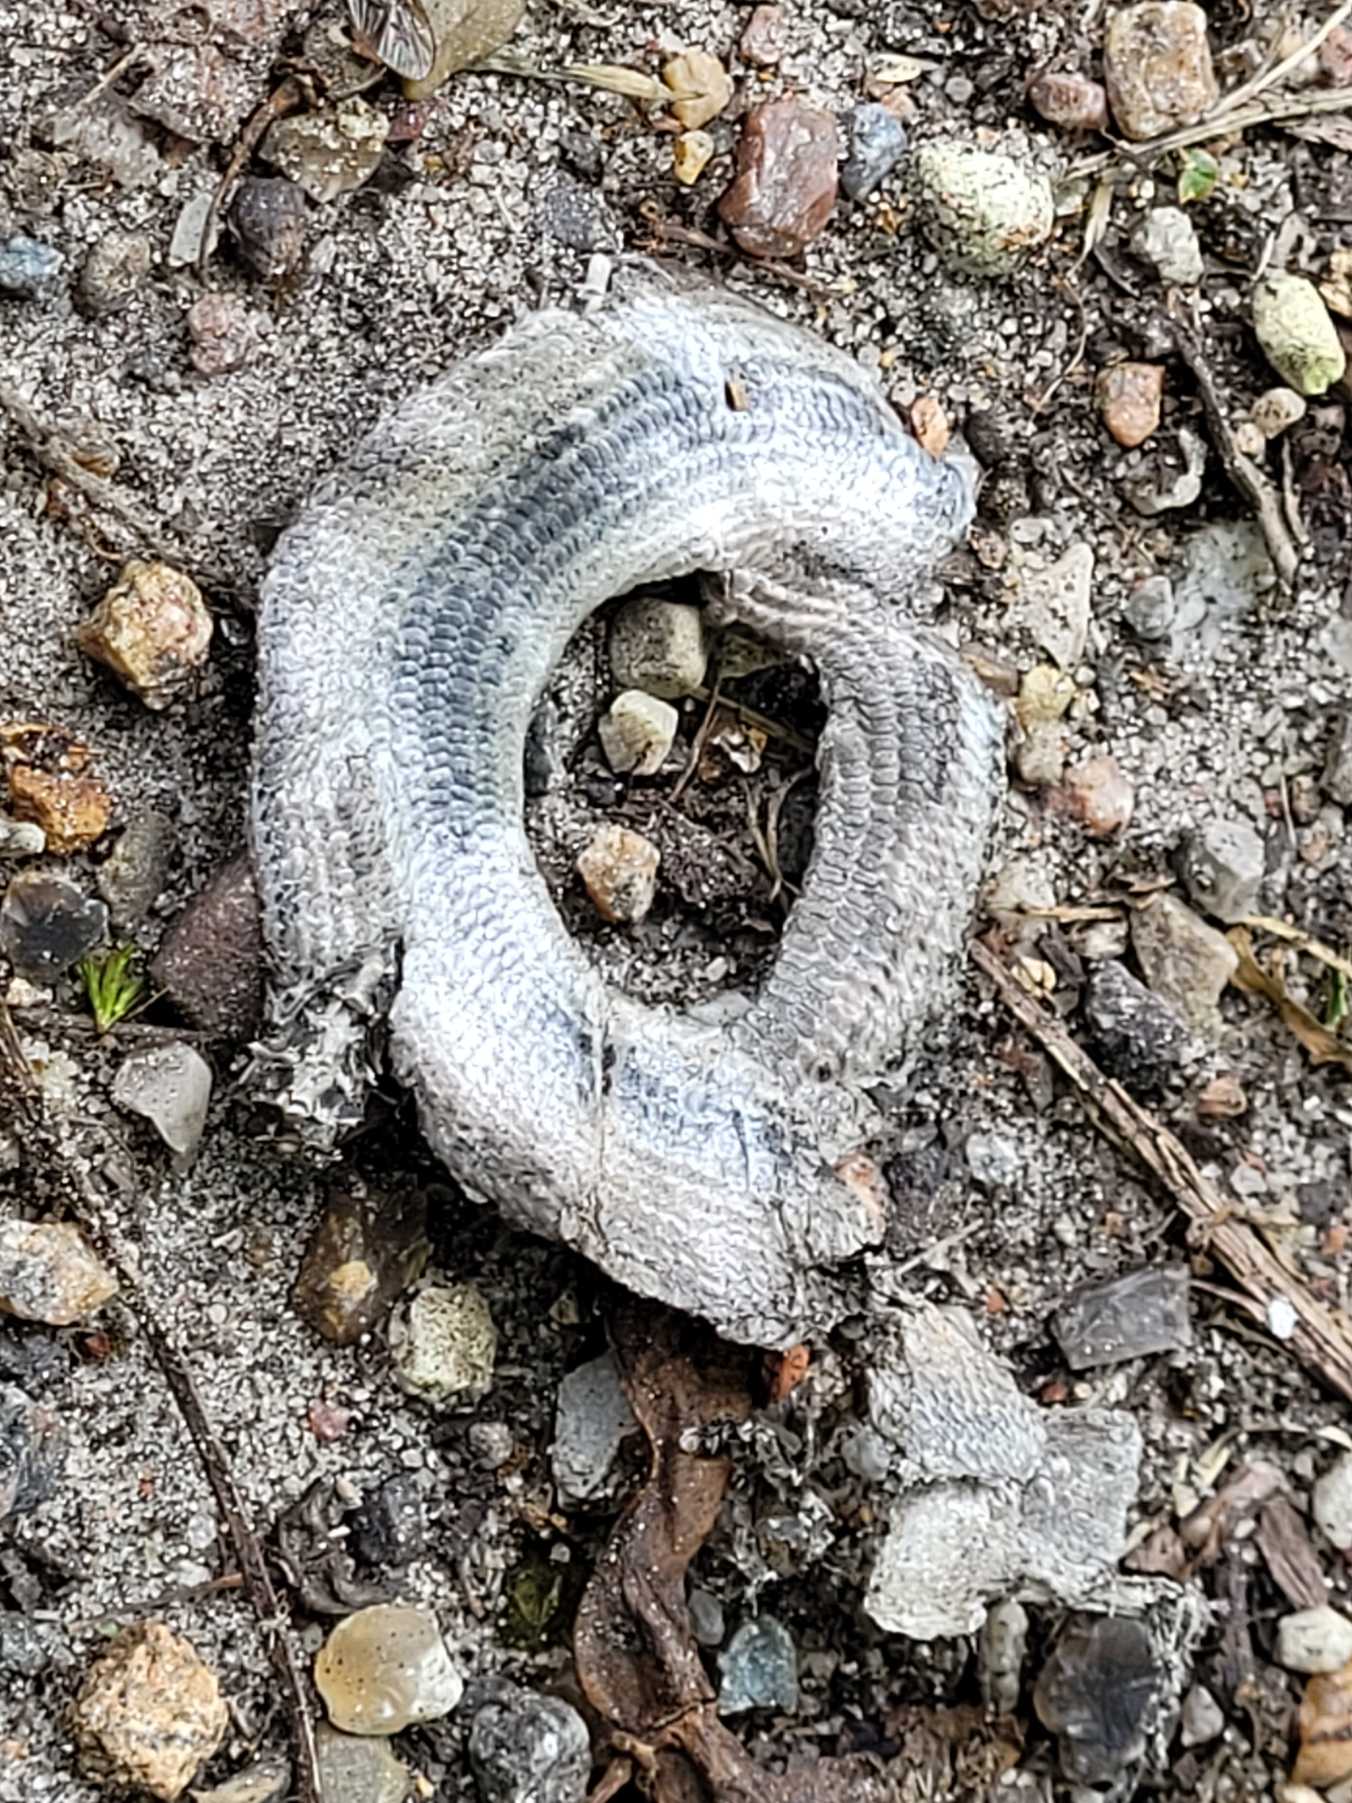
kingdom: Animalia
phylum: Chordata
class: Squamata
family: Anguidae
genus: Anguis
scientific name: Anguis fragilis
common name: Stålorm
